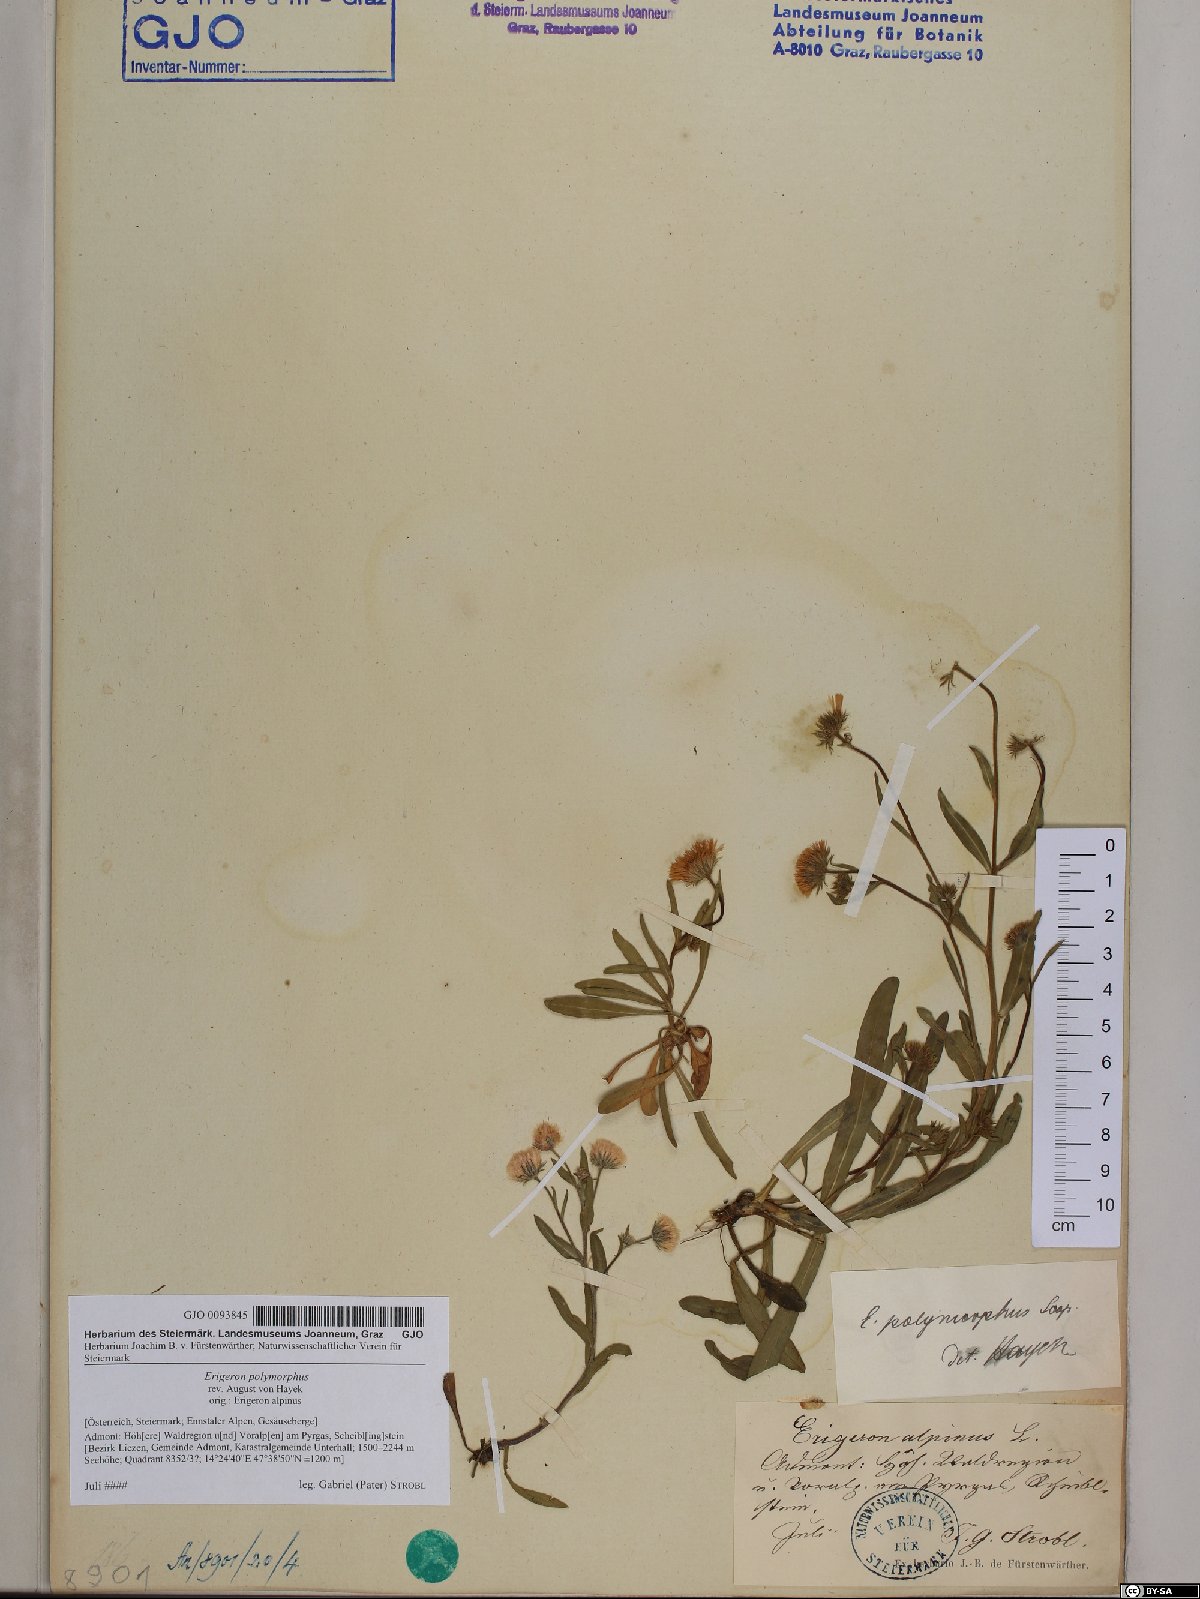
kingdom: Plantae
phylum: Tracheophyta
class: Magnoliopsida
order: Asterales
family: Asteraceae
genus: Erigeron
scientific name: Erigeron alpinus
